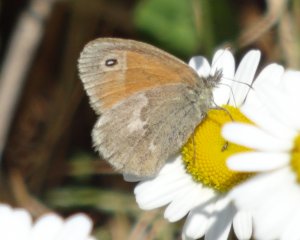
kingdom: Animalia
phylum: Arthropoda
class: Insecta
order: Lepidoptera
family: Nymphalidae
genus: Coenonympha
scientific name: Coenonympha tullia
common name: Large Heath
